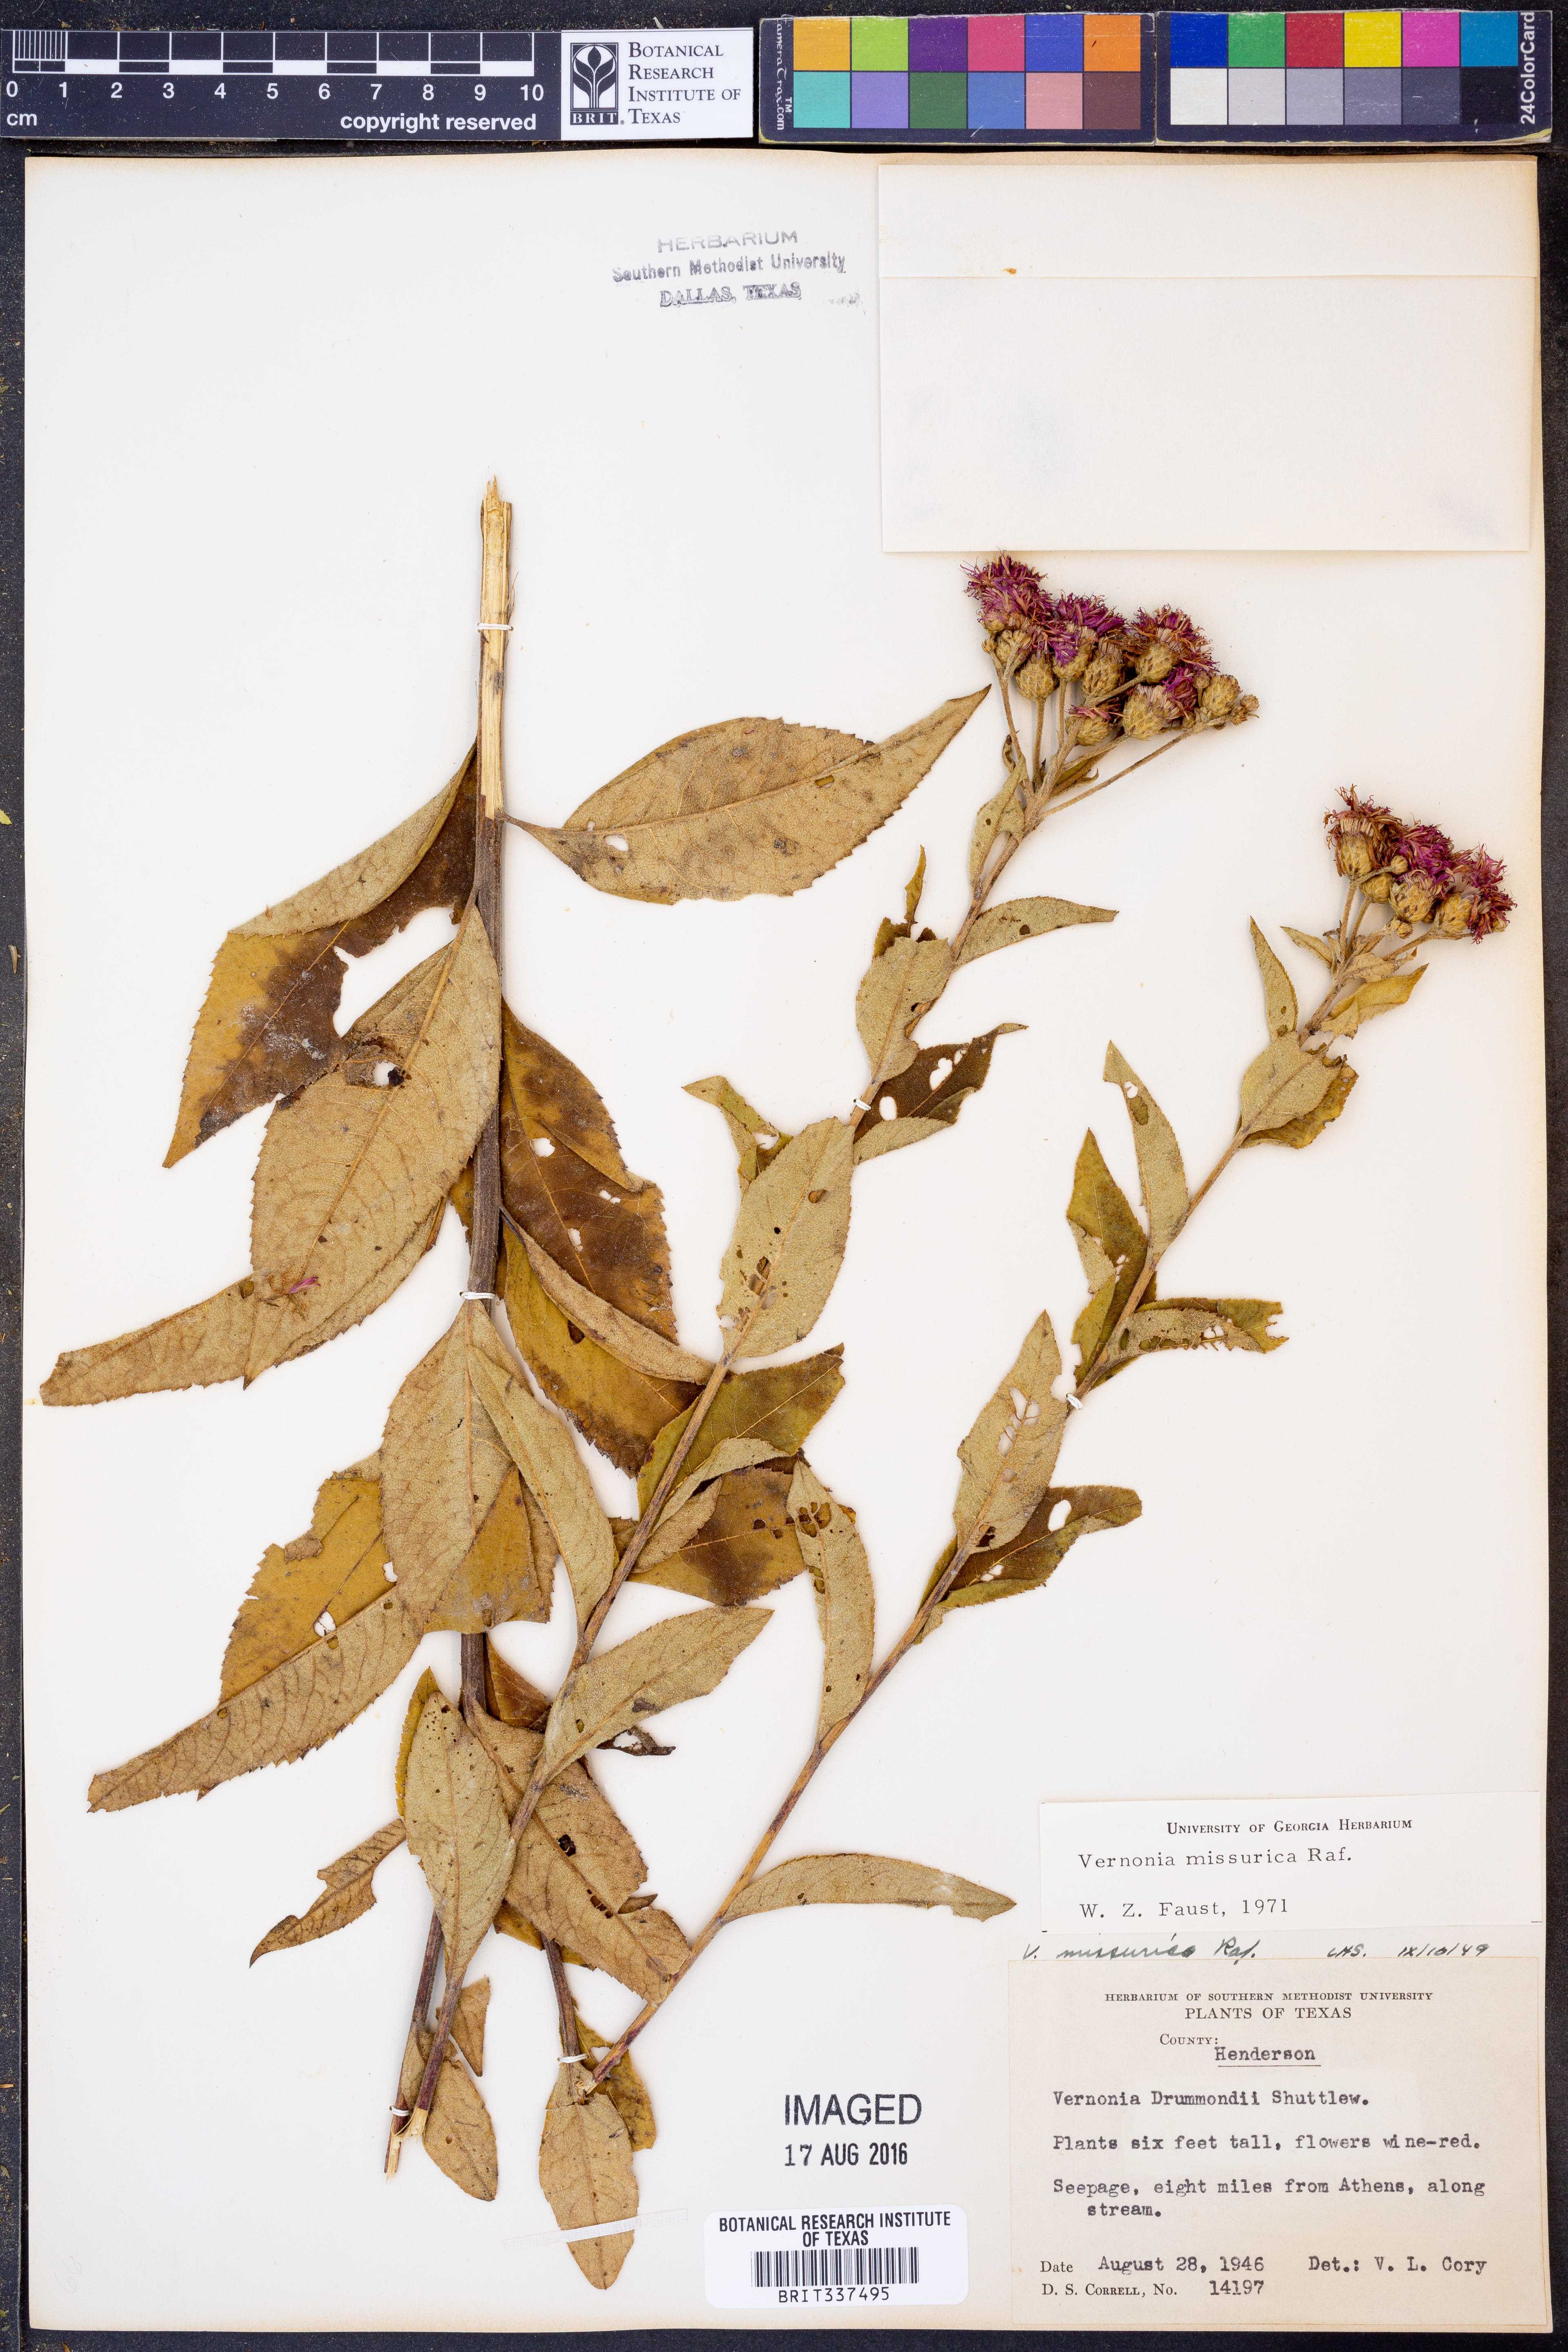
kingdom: Plantae
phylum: Tracheophyta
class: Magnoliopsida
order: Asterales
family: Asteraceae
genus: Vernonia
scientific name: Vernonia missurica
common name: Missouri ironweed
